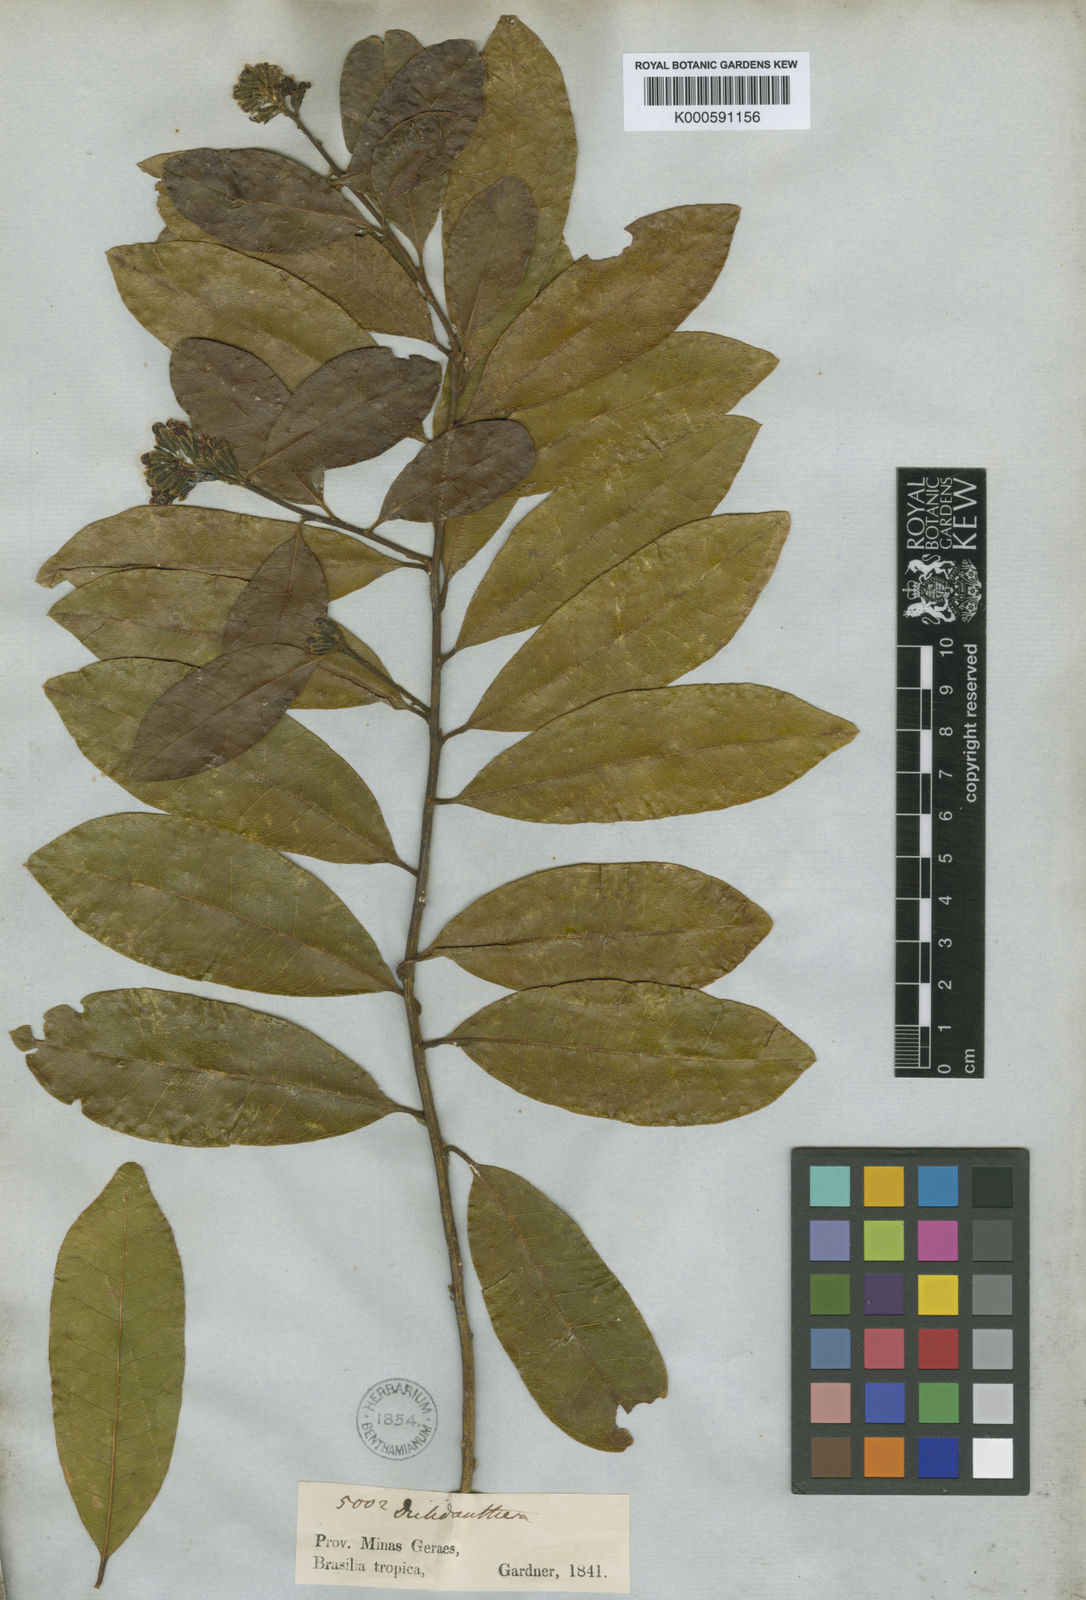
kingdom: Plantae
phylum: Tracheophyta
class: Magnoliopsida
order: Fabales
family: Polygalaceae
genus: Diclidanthera
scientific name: Diclidanthera laurifolia
